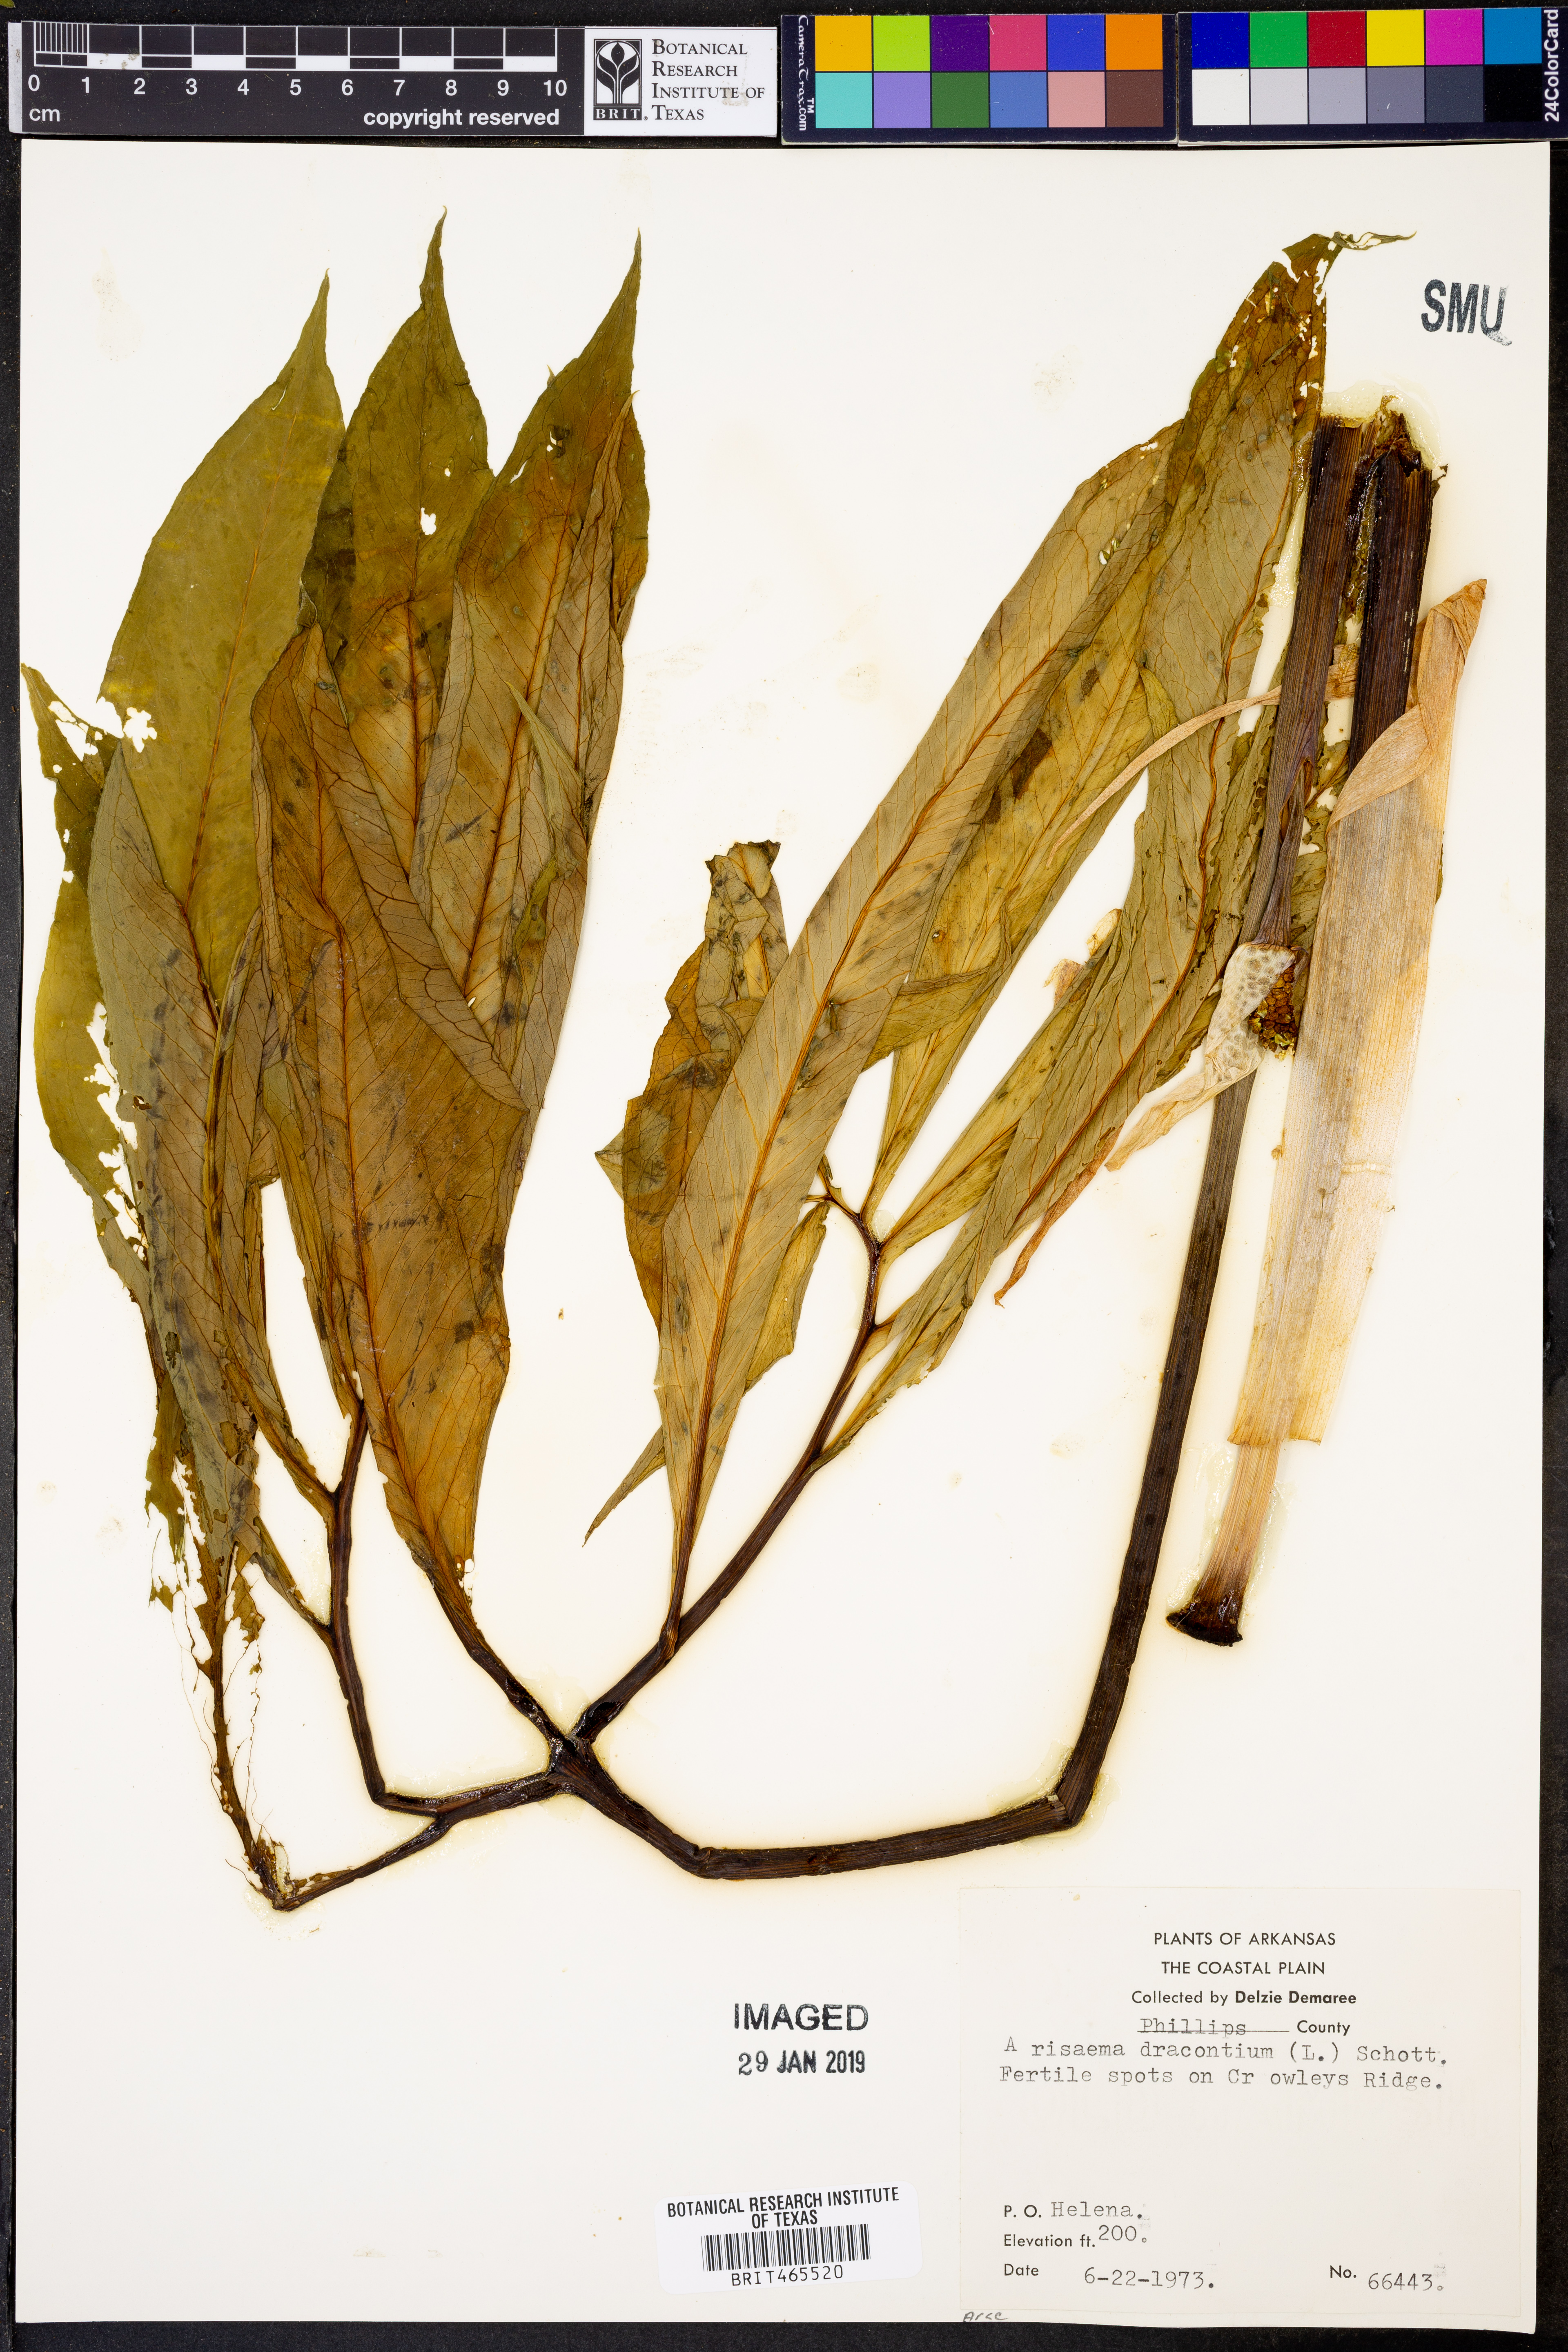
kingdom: Plantae
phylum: Tracheophyta
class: Liliopsida
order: Alismatales
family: Araceae
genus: Arisaema
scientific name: Arisaema dracontium
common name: Dragon-arum
